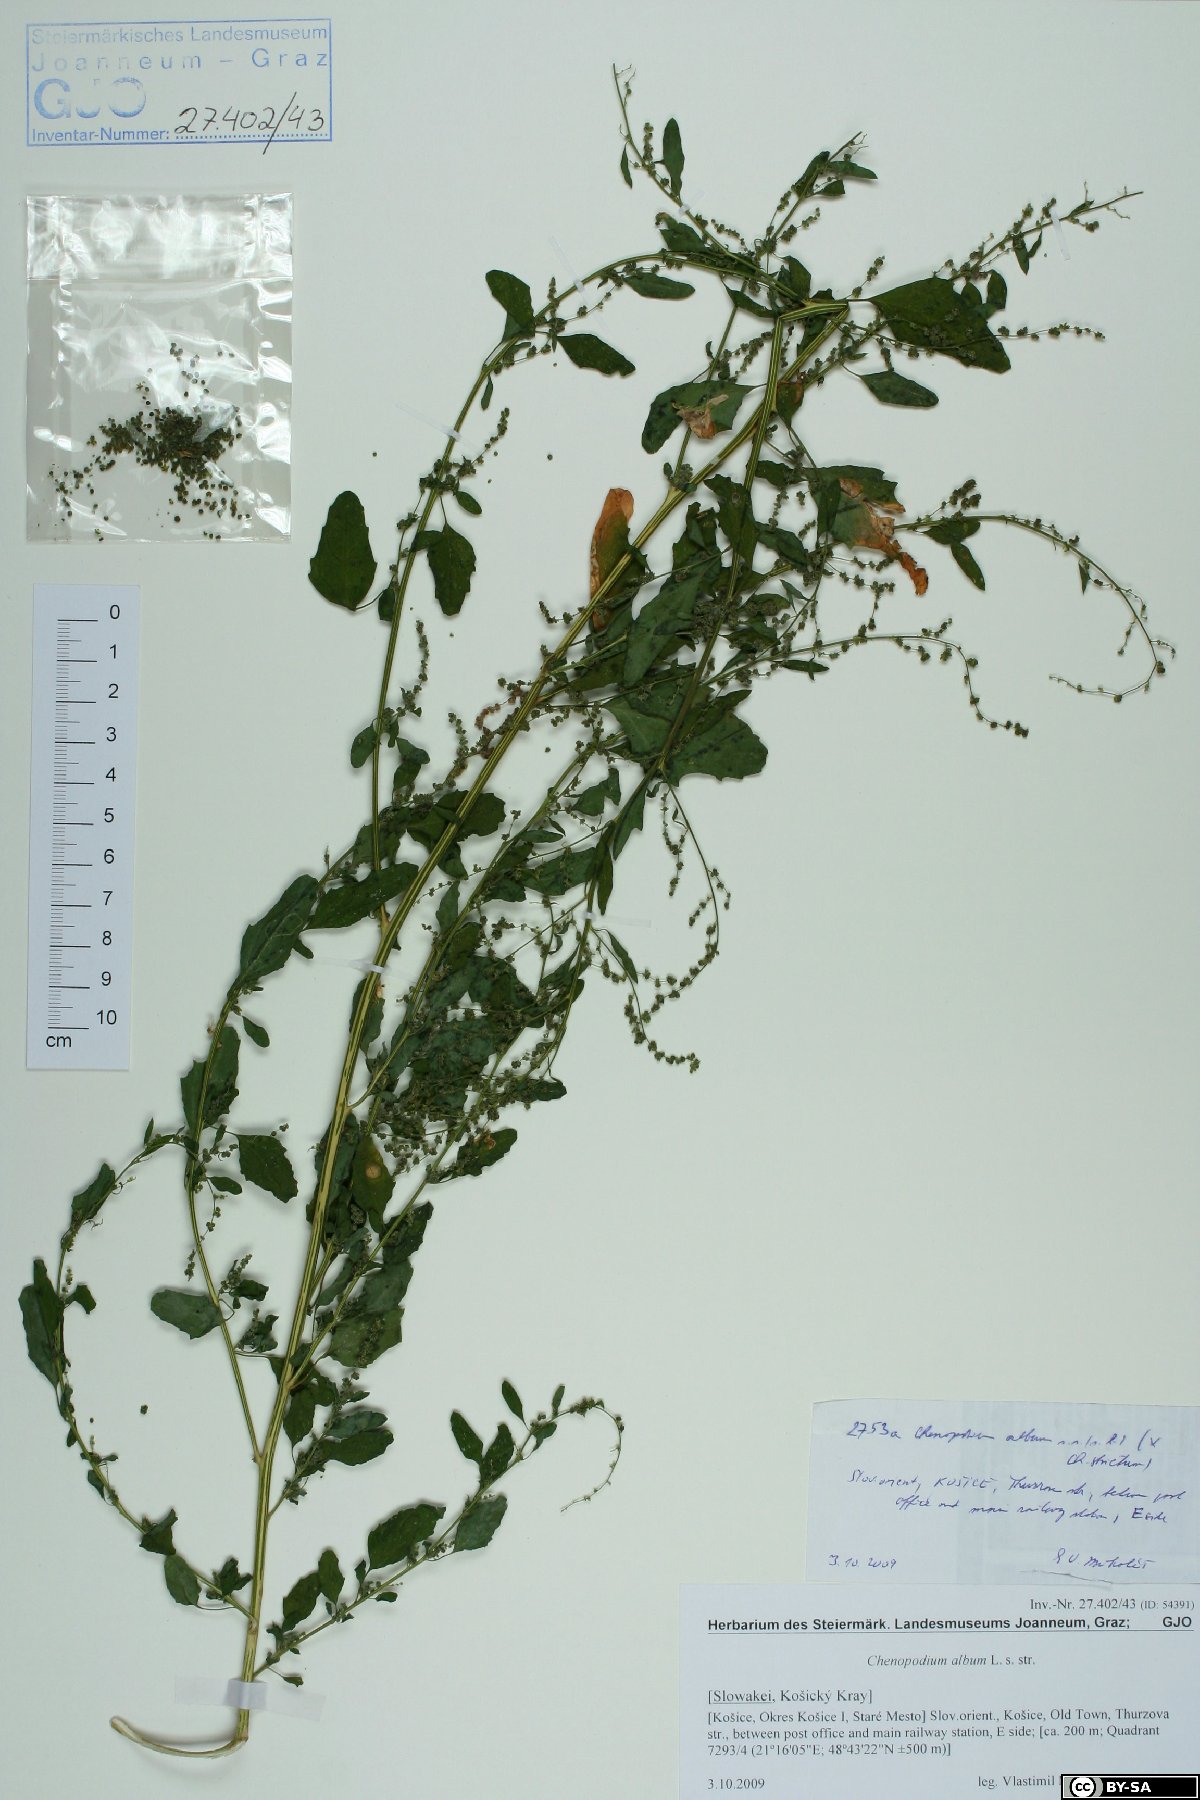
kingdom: Plantae
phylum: Tracheophyta
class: Magnoliopsida
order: Caryophyllales
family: Amaranthaceae
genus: Chenopodium
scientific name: Chenopodium album
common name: Fat-hen
